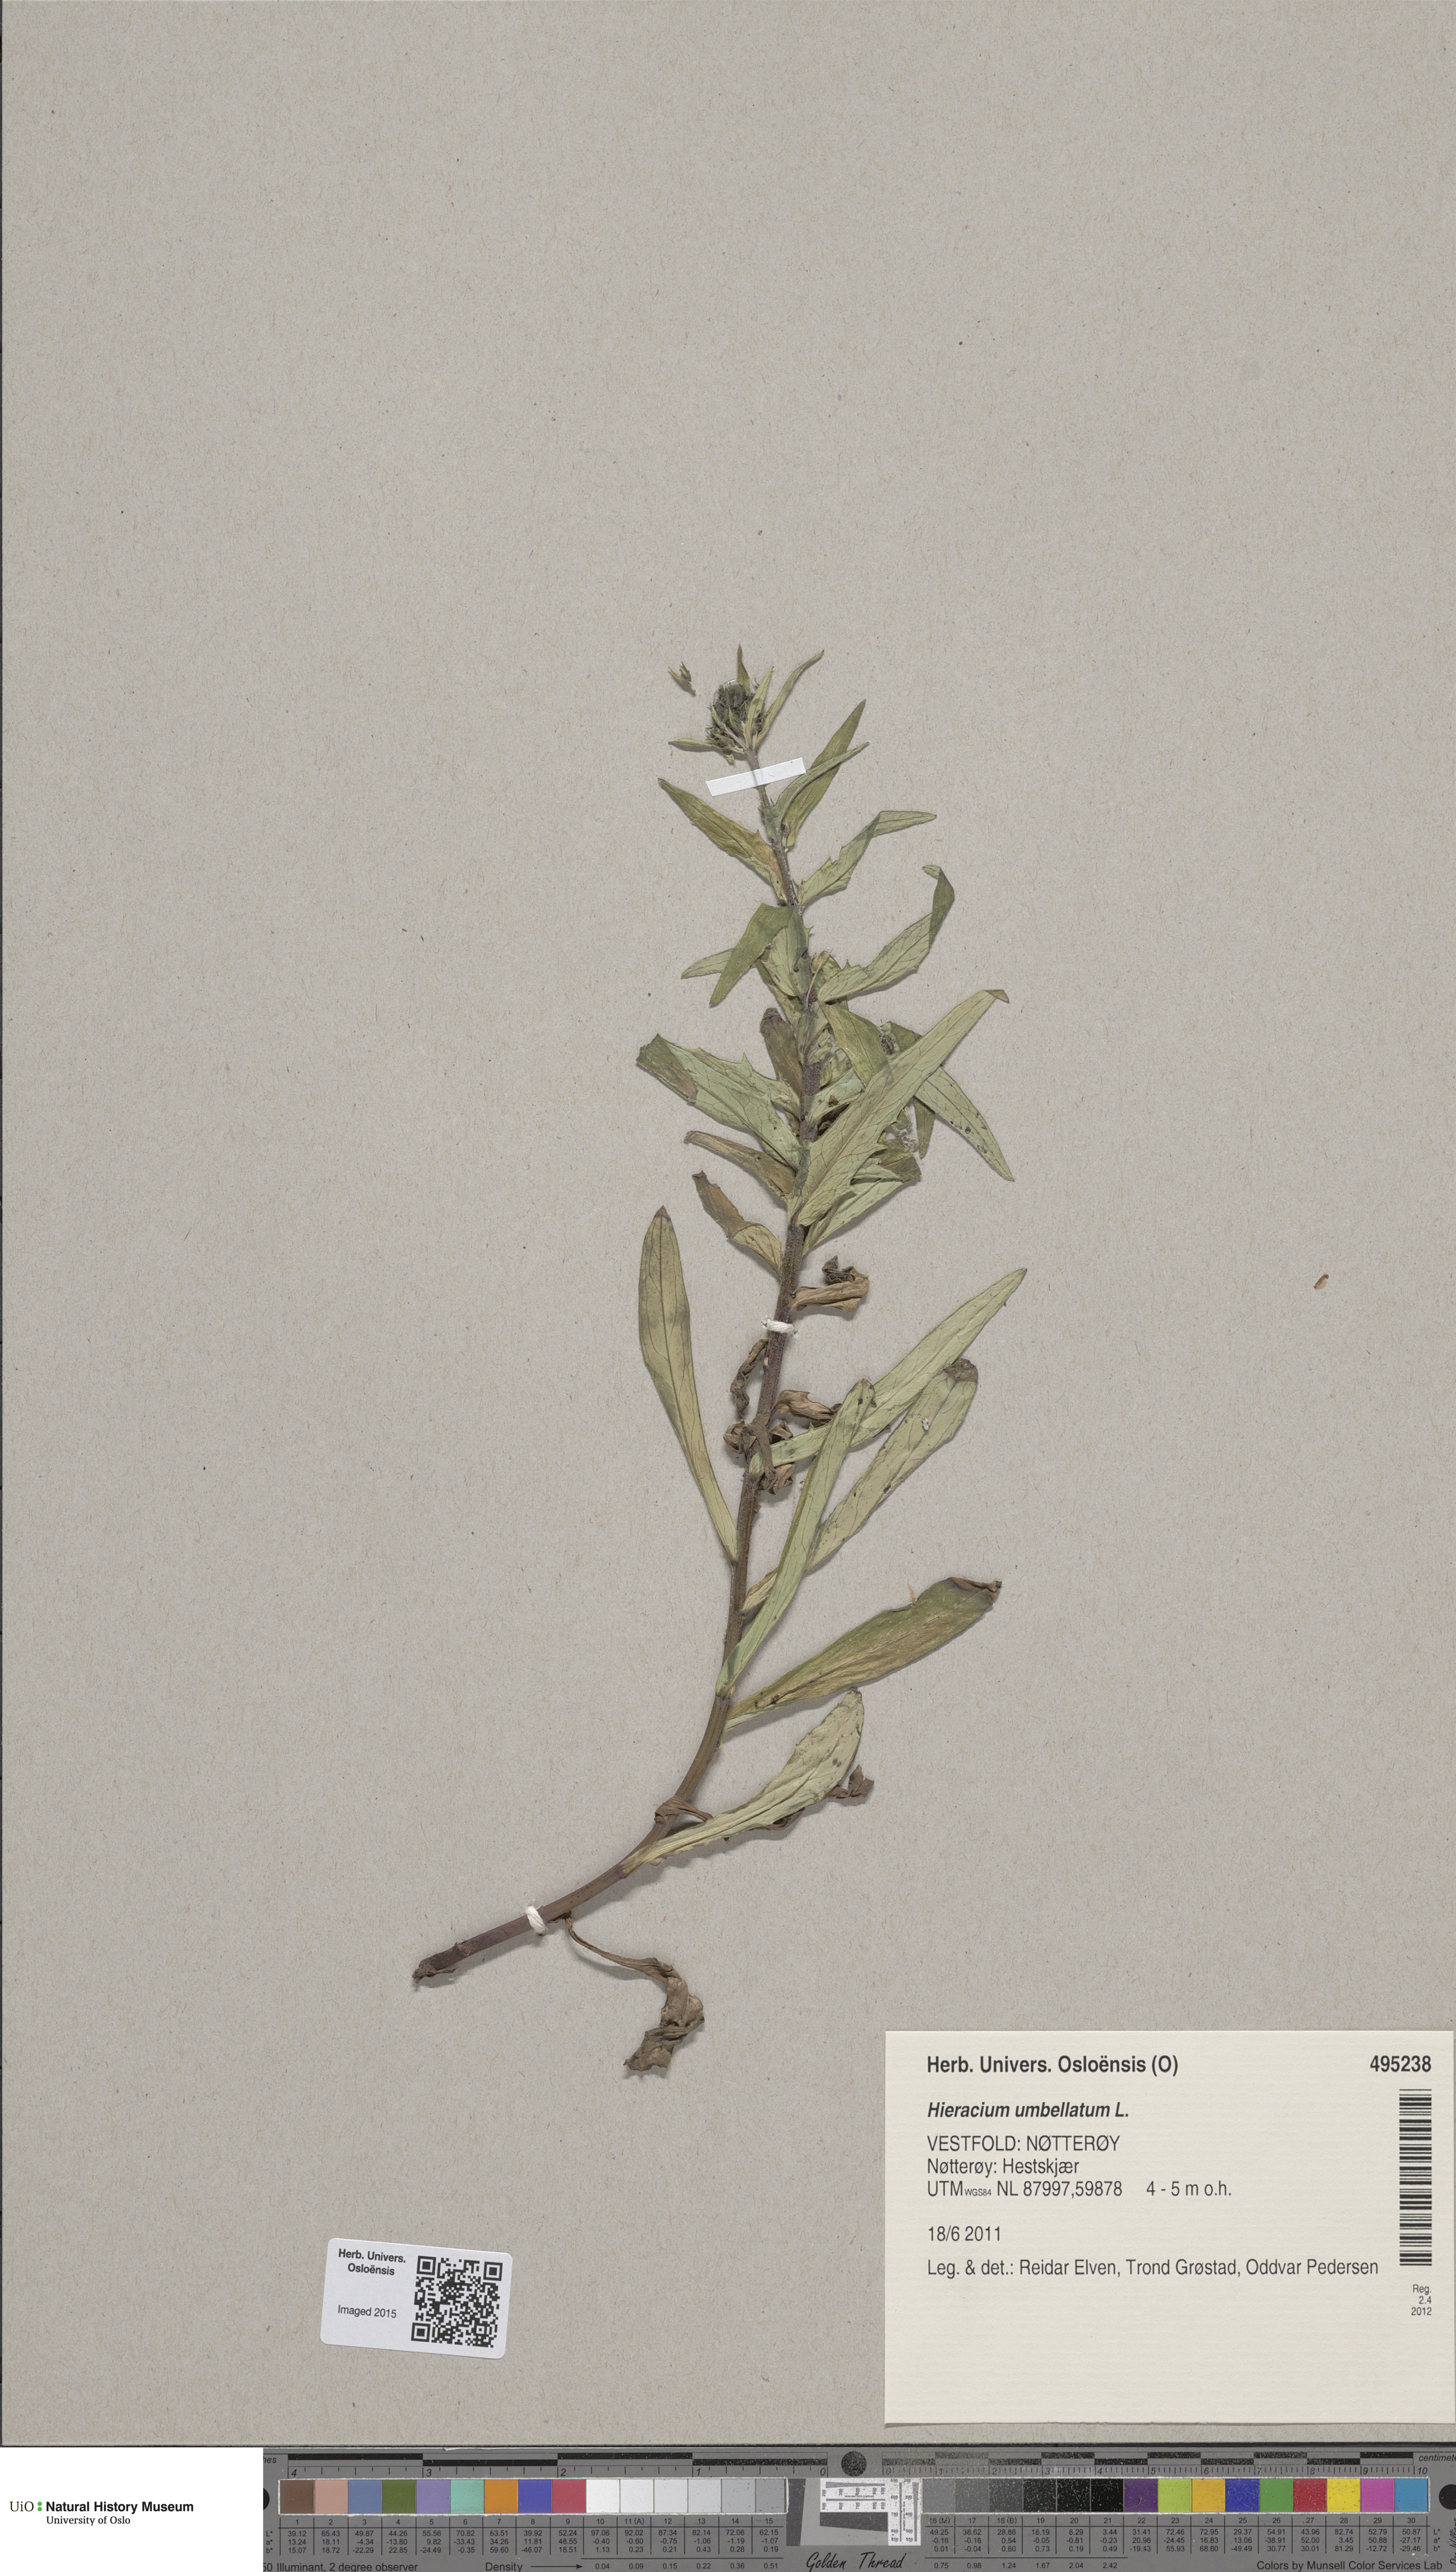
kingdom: Plantae
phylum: Tracheophyta
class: Magnoliopsida
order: Asterales
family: Asteraceae
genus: Hieracium
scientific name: Hieracium umbellatum
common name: Northern hawkweed
